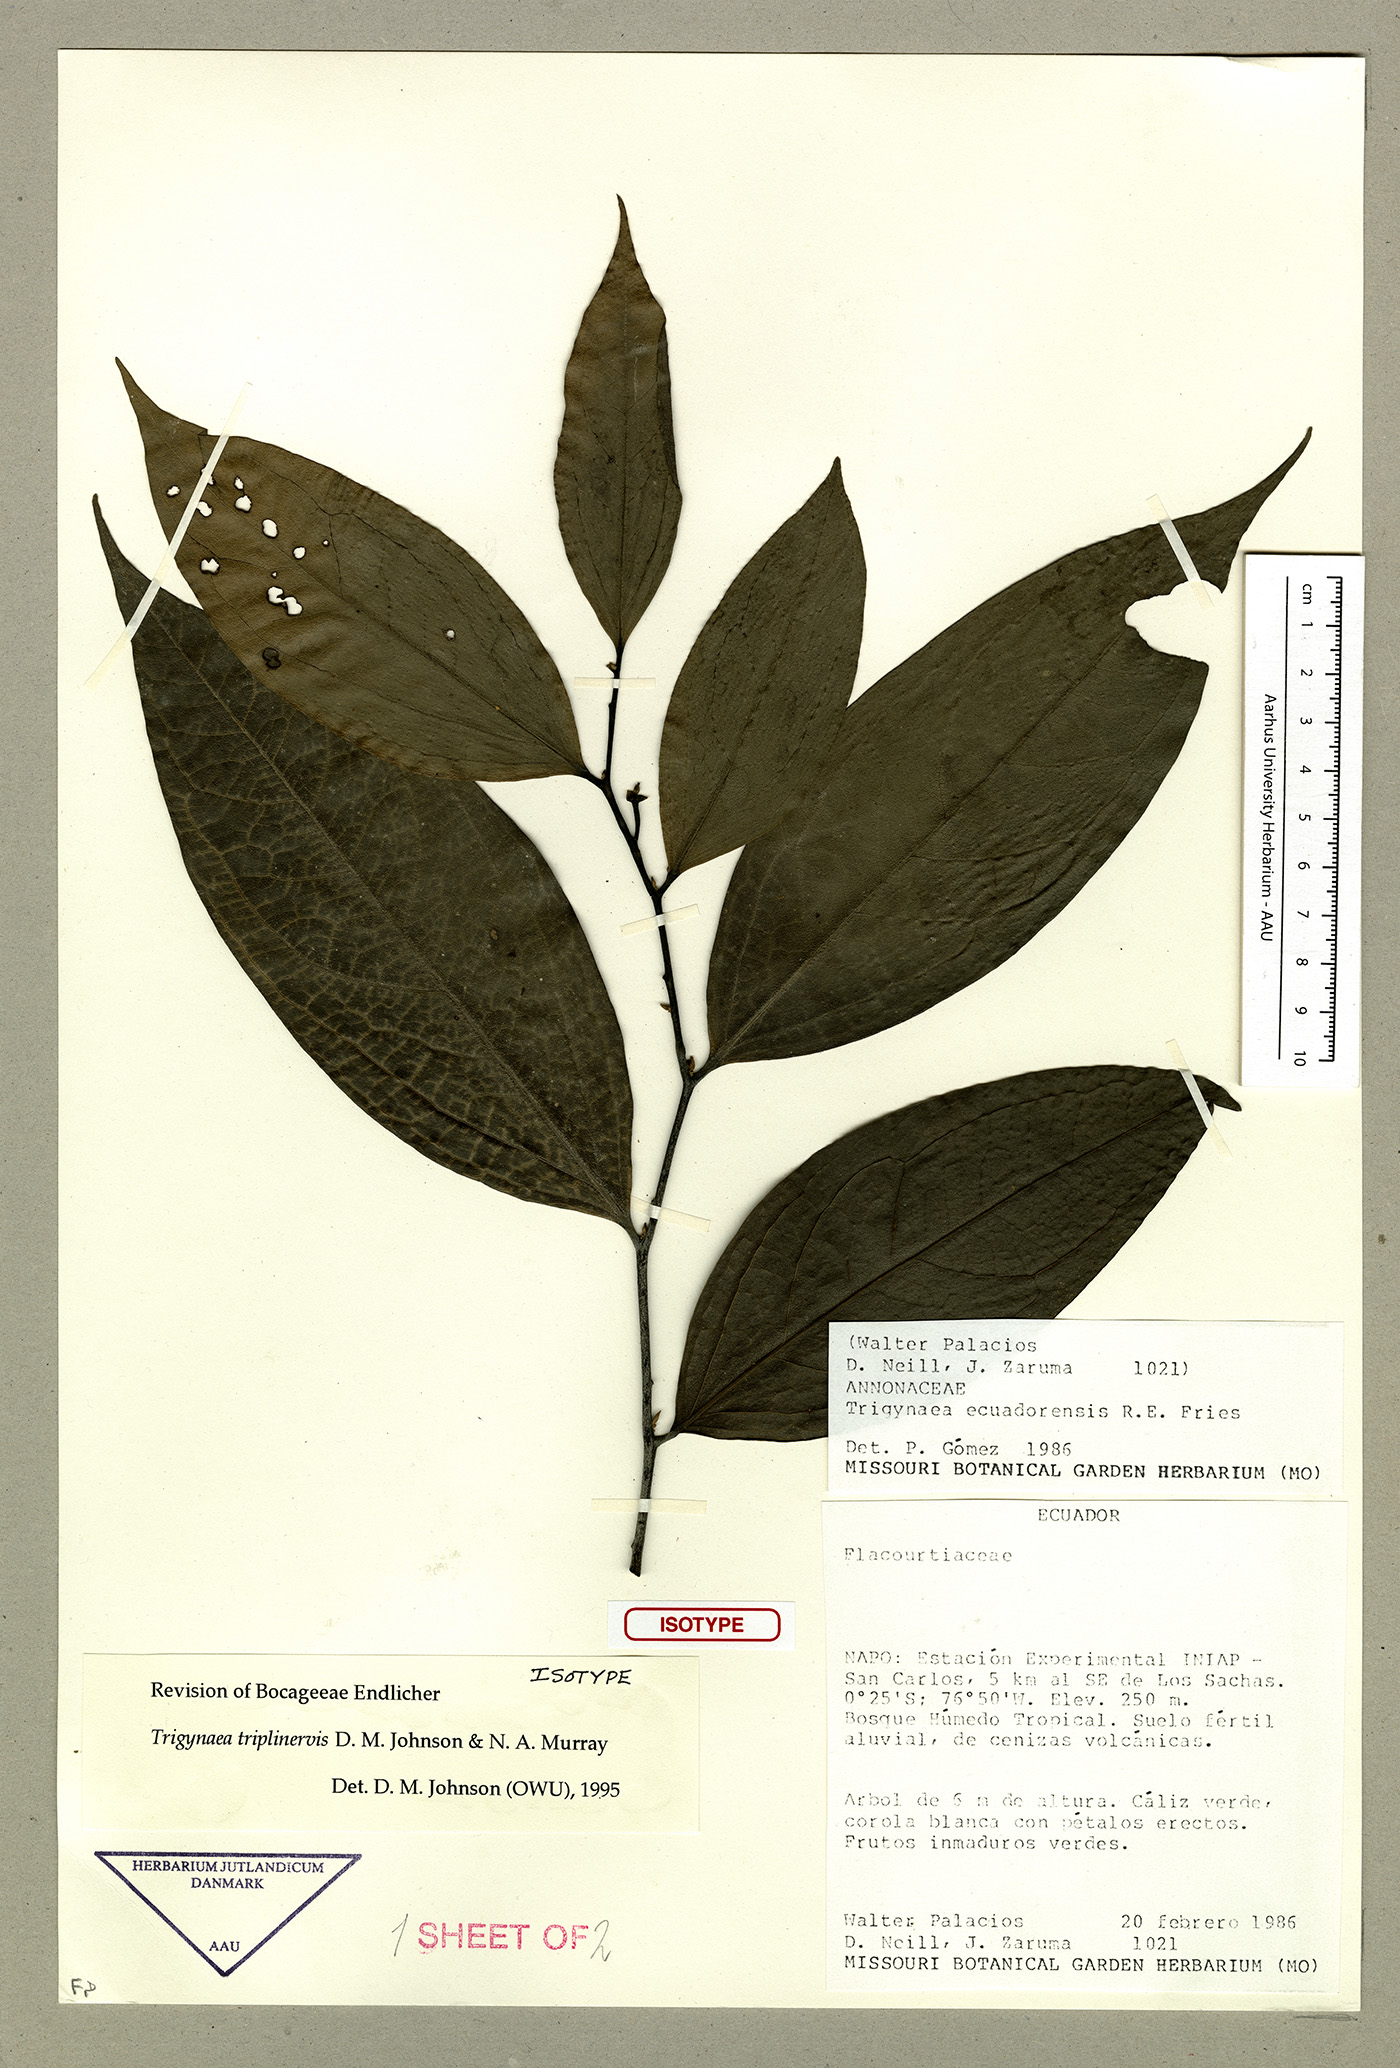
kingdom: Plantae
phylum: Tracheophyta
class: Magnoliopsida
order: Magnoliales
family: Annonaceae
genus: Trigynaea
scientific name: Trigynaea triplinervis
